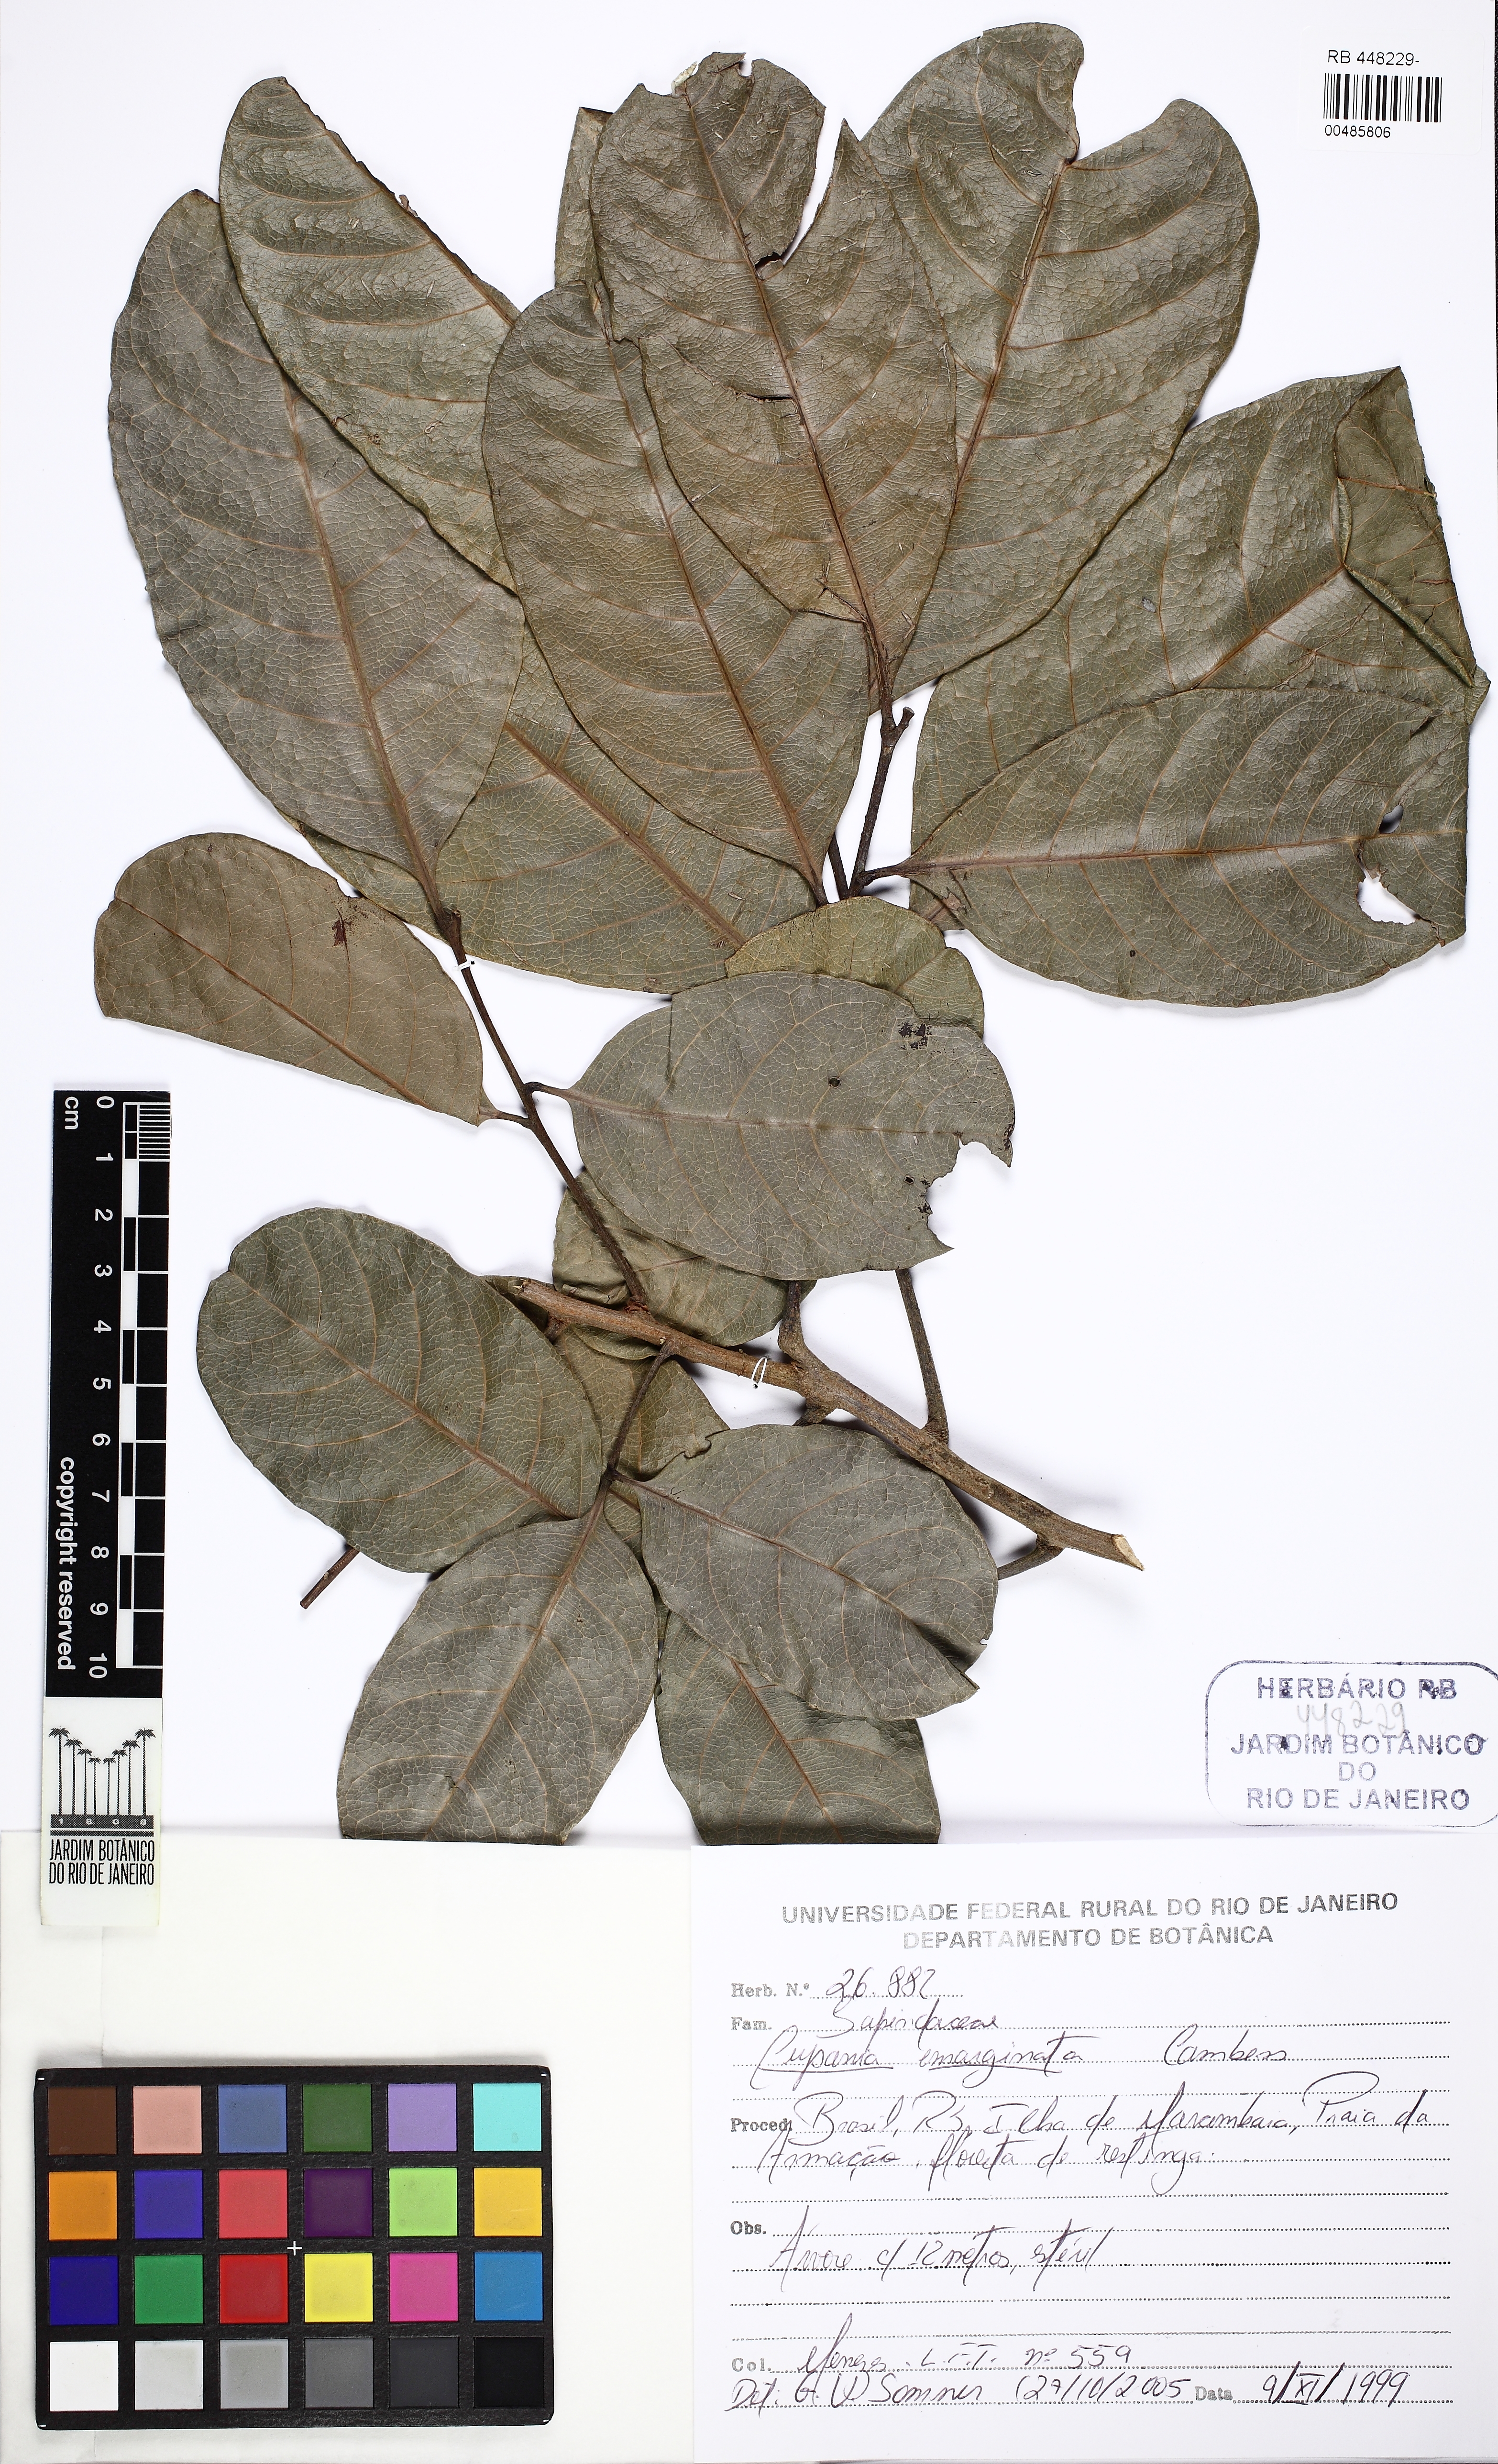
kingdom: Plantae
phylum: Tracheophyta
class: Magnoliopsida
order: Sapindales
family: Sapindaceae
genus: Cupania
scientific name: Cupania emarginata
